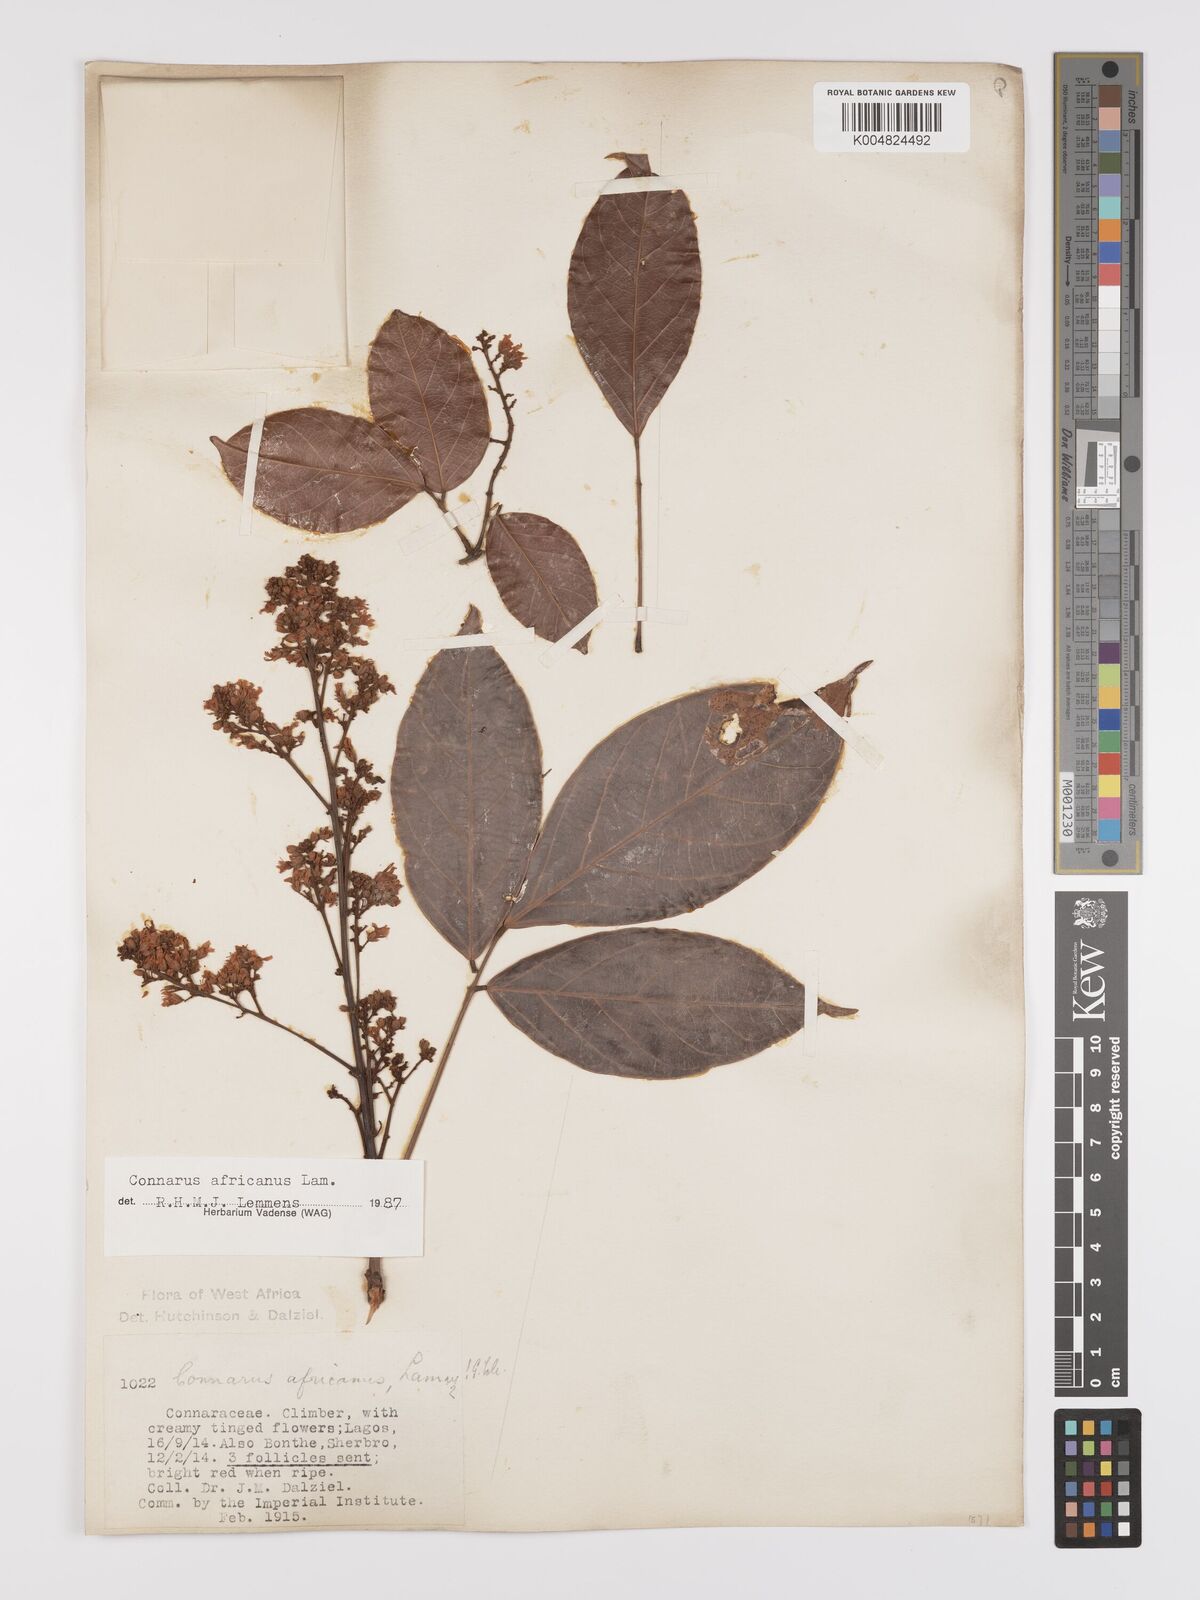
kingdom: Plantae
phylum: Tracheophyta
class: Magnoliopsida
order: Oxalidales
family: Connaraceae
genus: Connarus
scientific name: Connarus africanus
